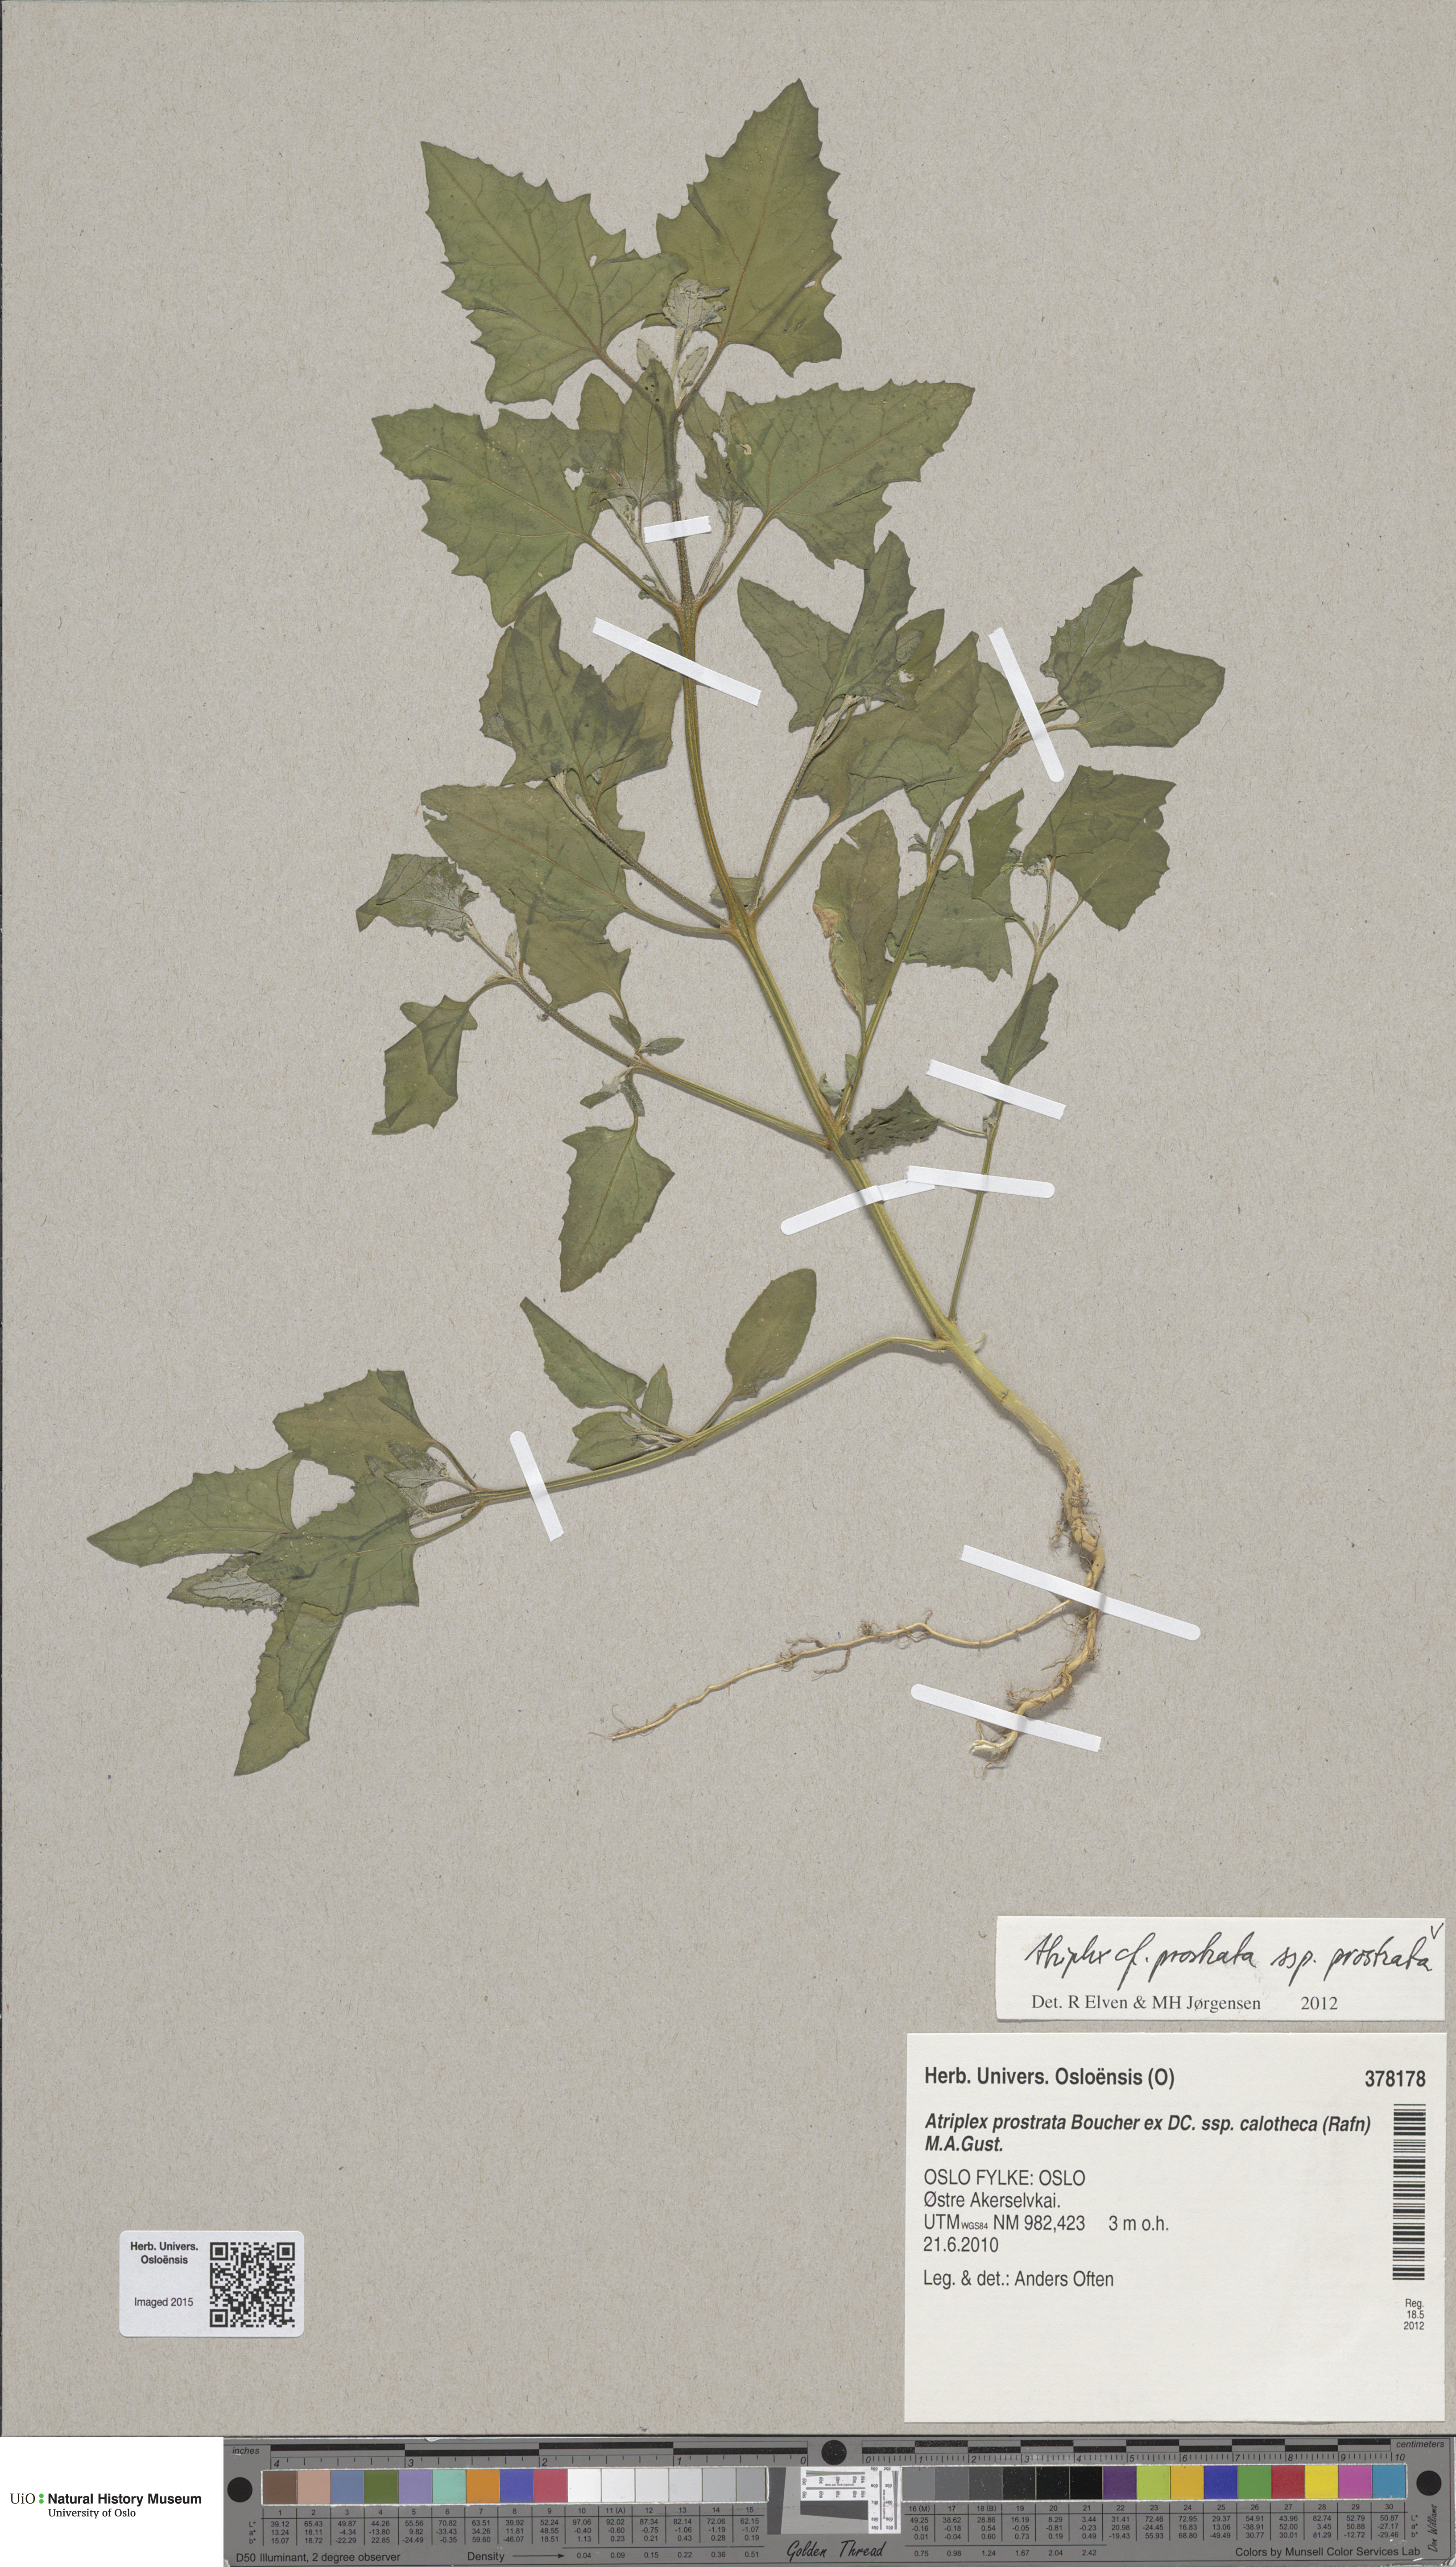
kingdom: Plantae
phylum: Tracheophyta
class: Magnoliopsida
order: Caryophyllales
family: Amaranthaceae
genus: Atriplex
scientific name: Atriplex prostrata
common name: Spear-leaved orache
